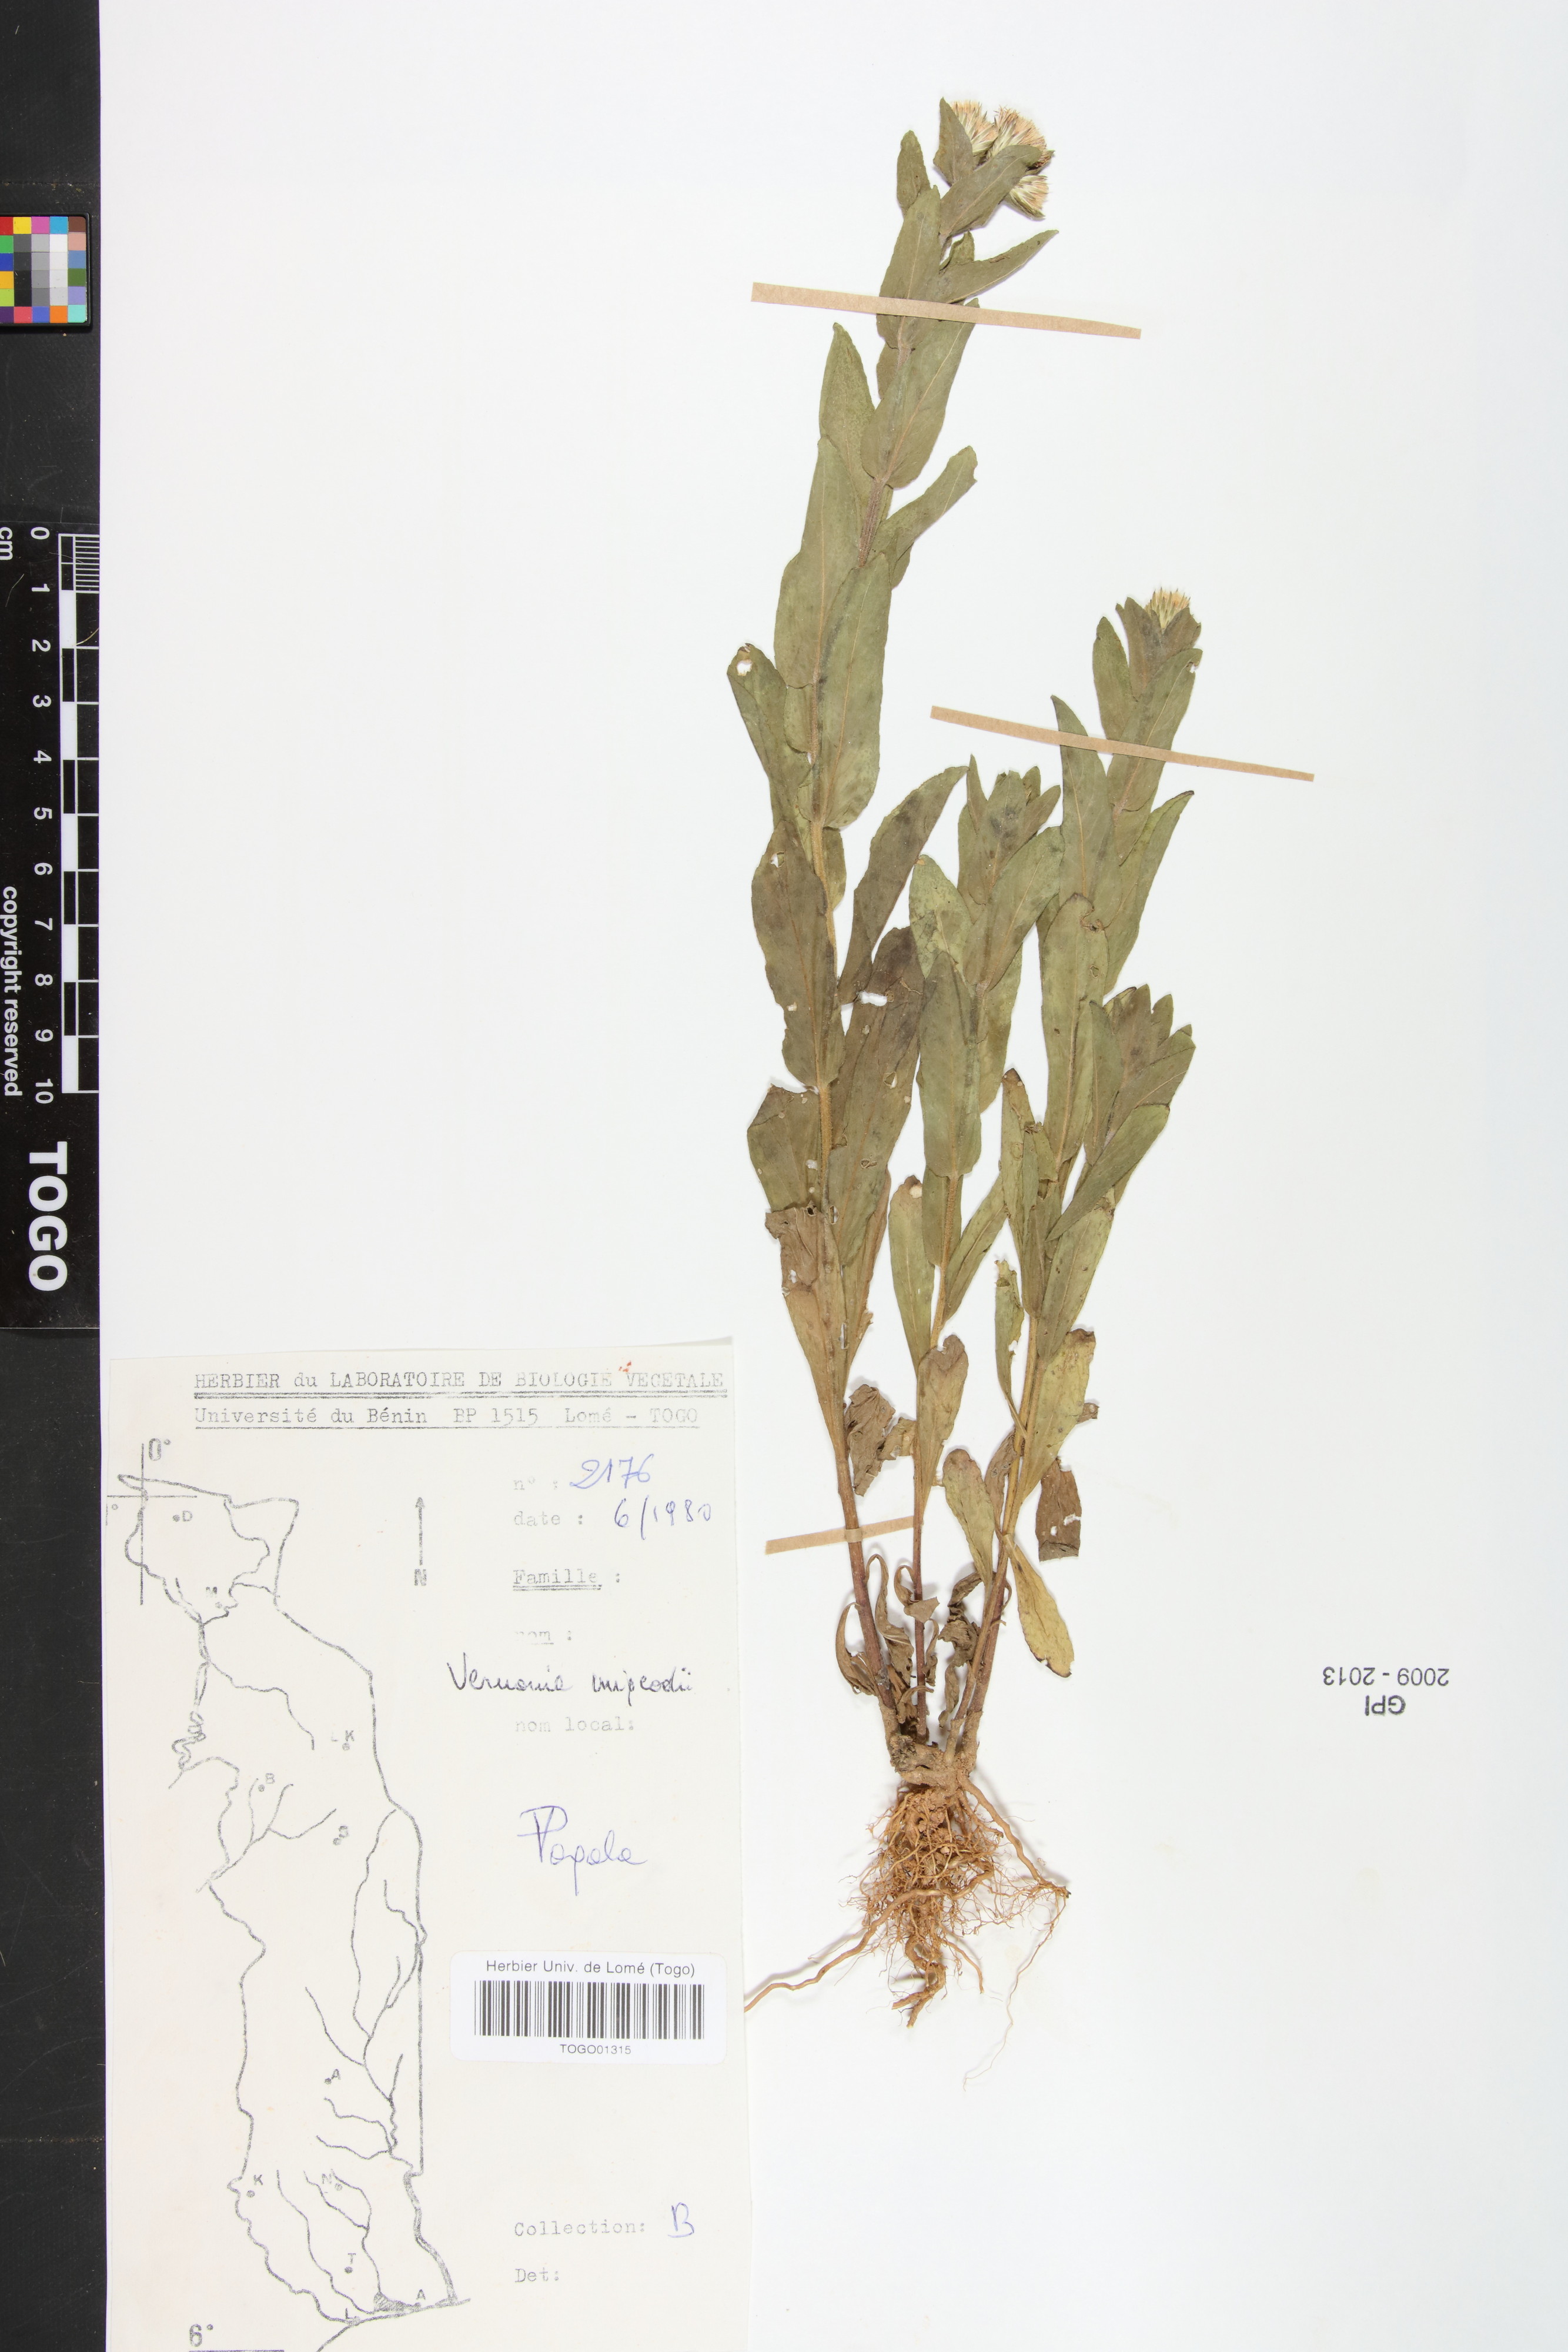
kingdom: Plantae
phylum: Tracheophyta
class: Magnoliopsida
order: Asterales
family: Asteraceae
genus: Vernoniastrum
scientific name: Vernoniastrum migeodii
